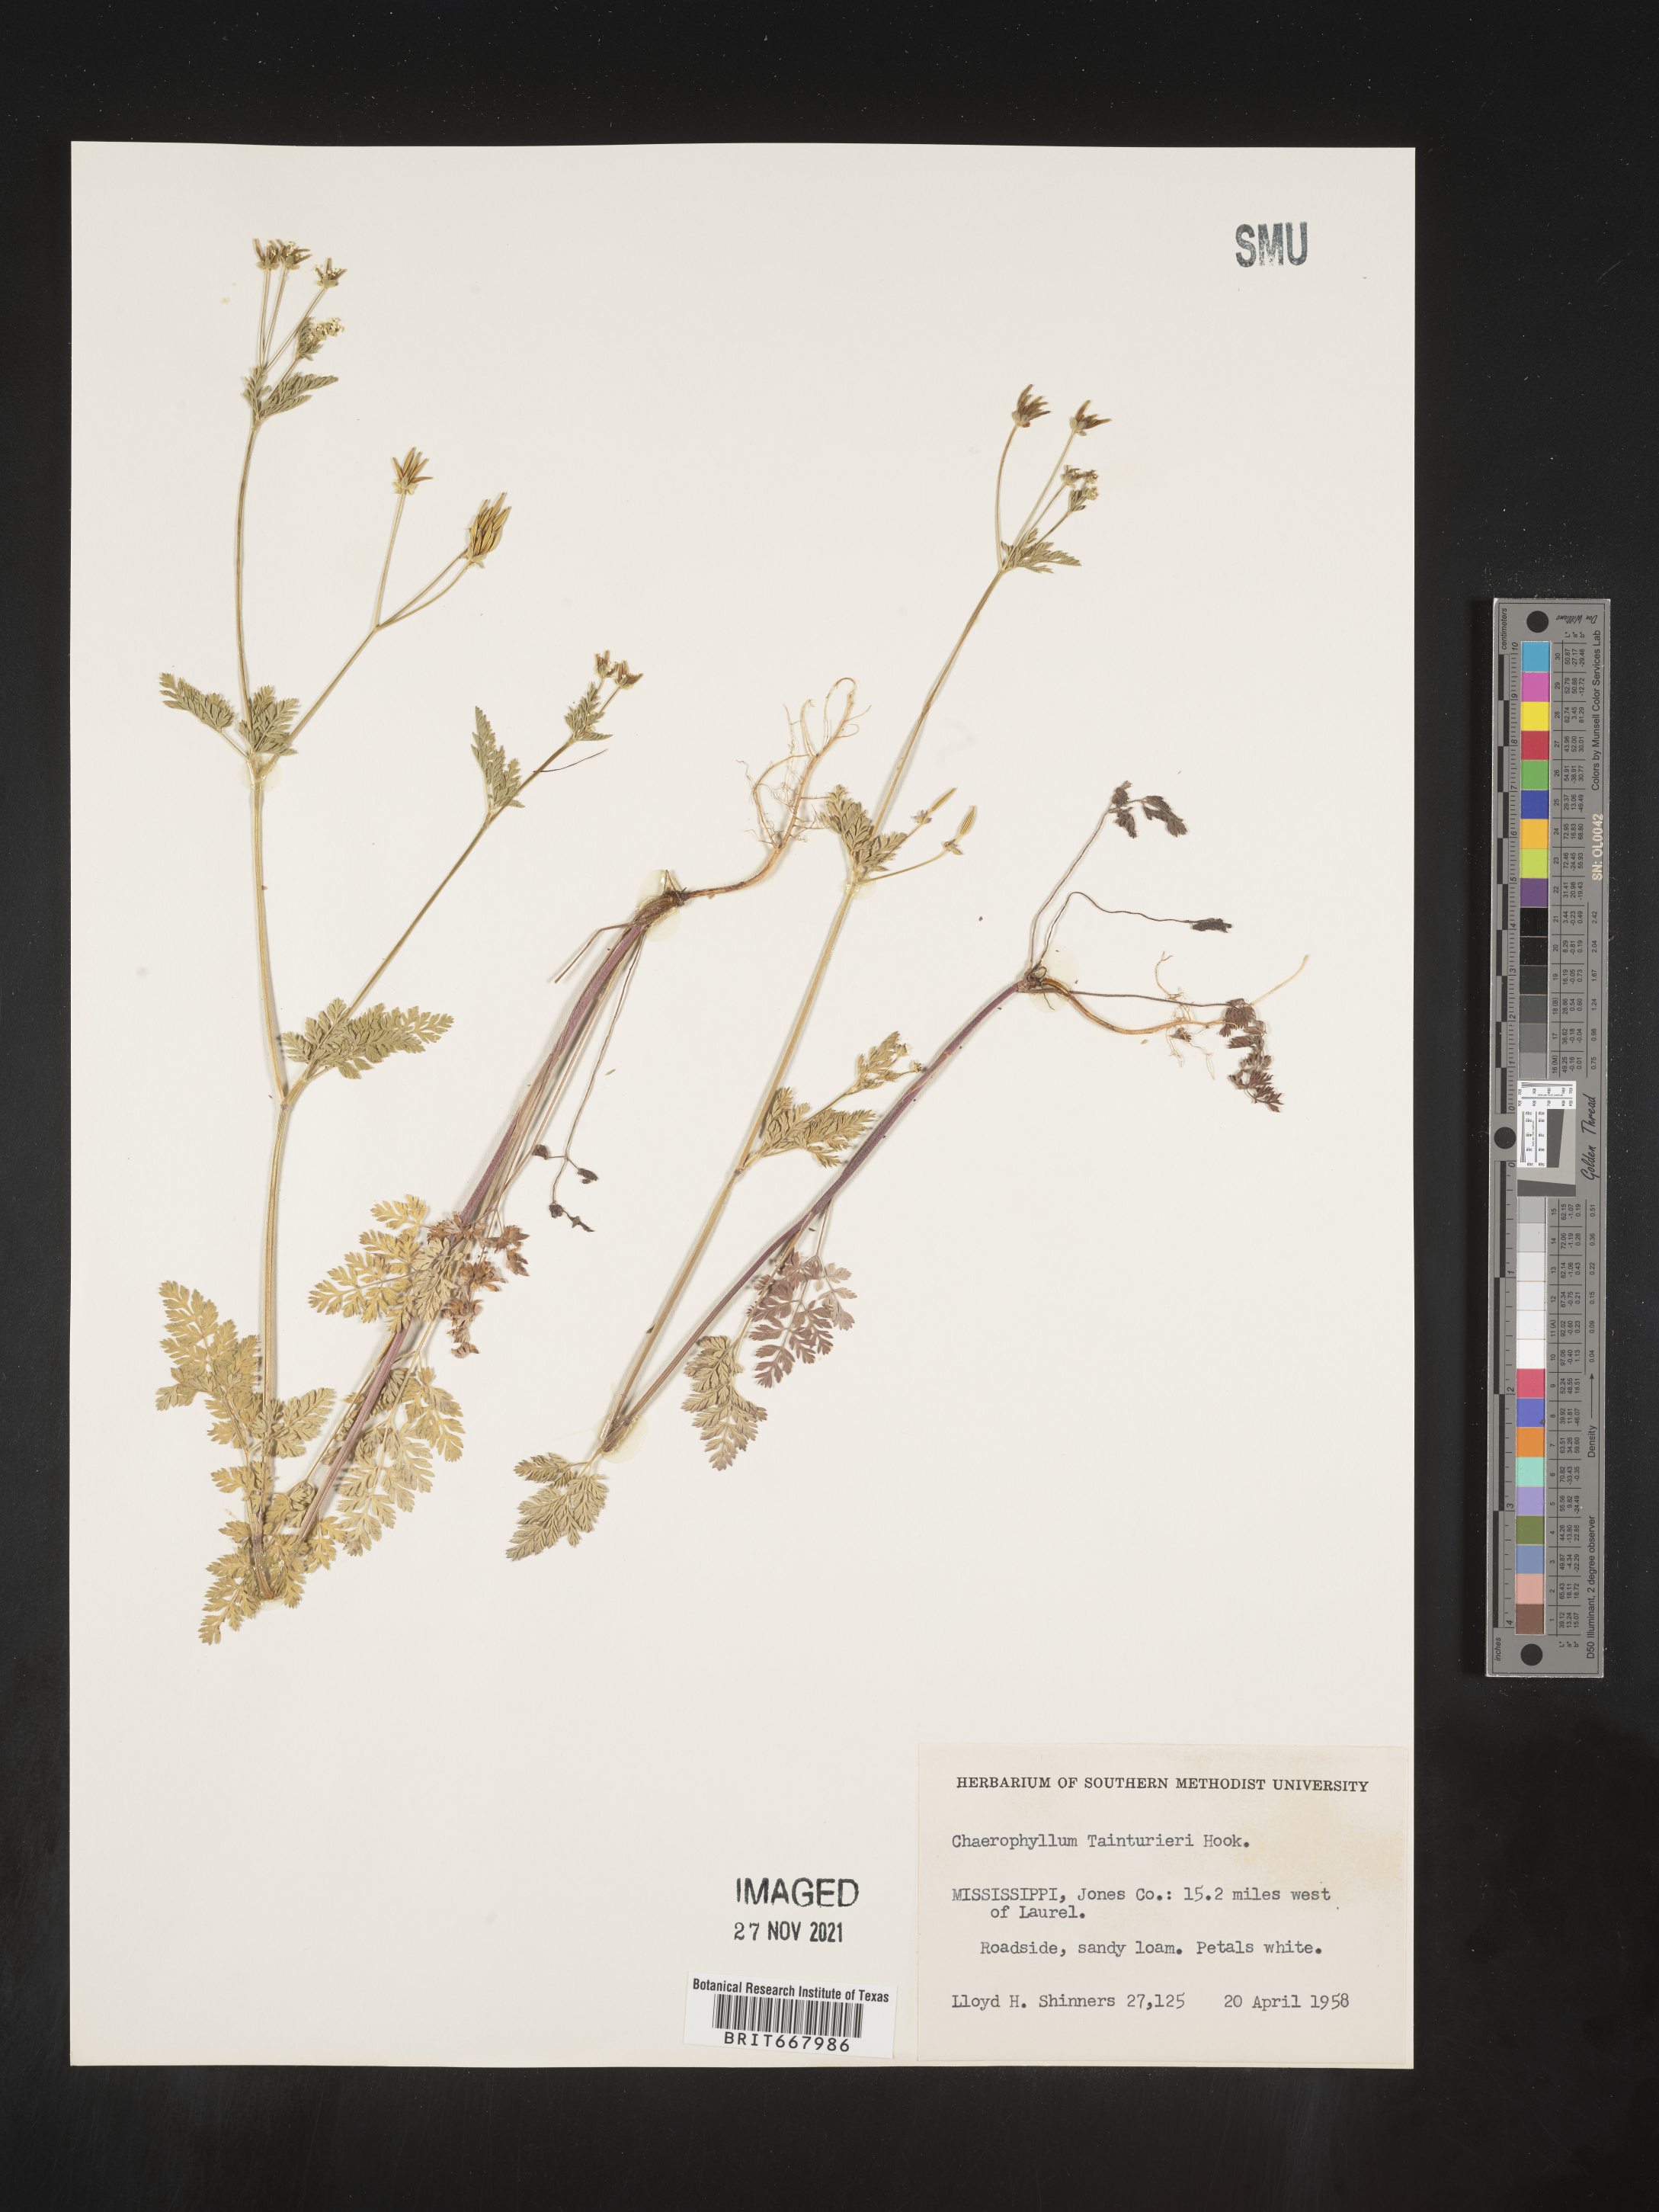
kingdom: Plantae
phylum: Tracheophyta
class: Magnoliopsida
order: Apiales
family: Apiaceae
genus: Chaerophyllum
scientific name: Chaerophyllum tainturieri
